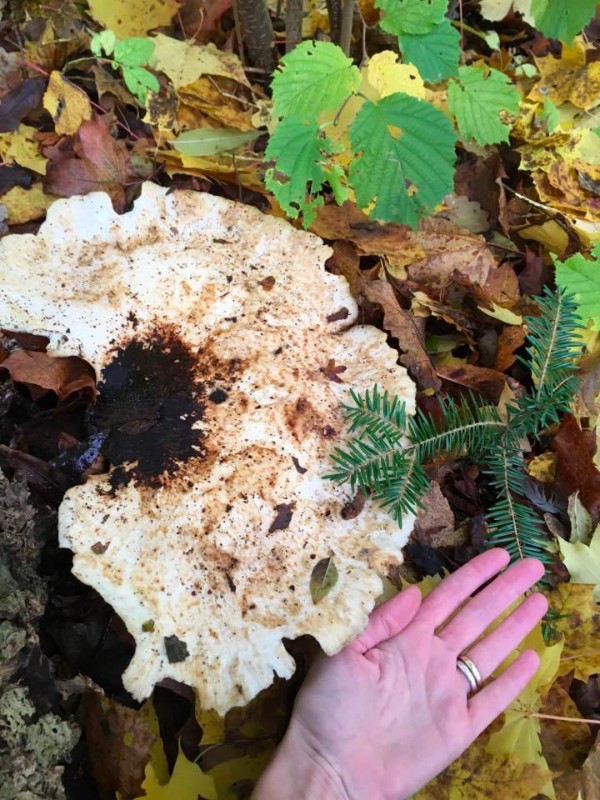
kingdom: Fungi
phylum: Basidiomycota
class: Agaricomycetes
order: Polyporales
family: Polyporaceae
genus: Cerioporus
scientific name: Cerioporus squamosus
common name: skællet stilkporesvamp
